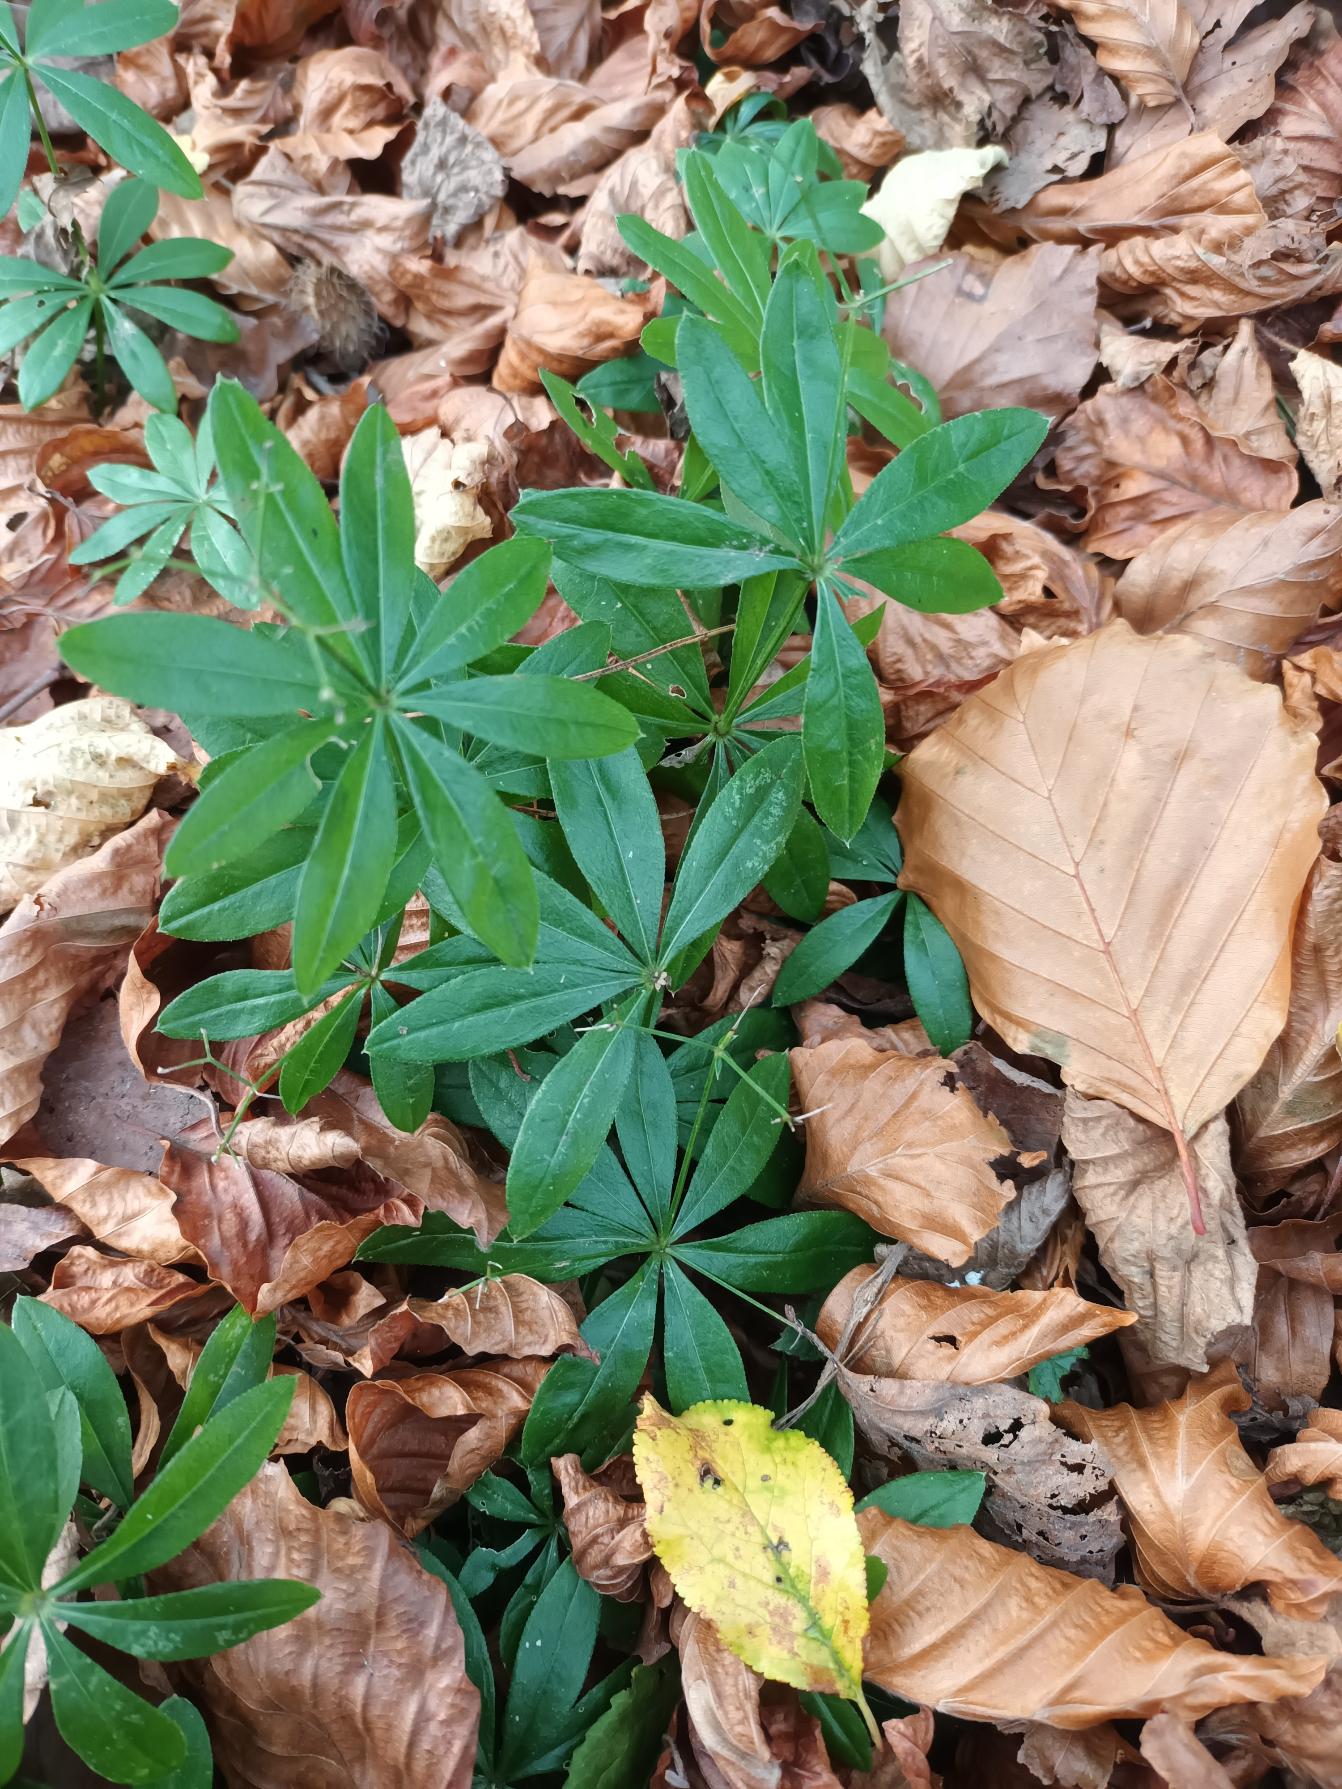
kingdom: Plantae
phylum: Tracheophyta
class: Magnoliopsida
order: Gentianales
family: Rubiaceae
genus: Galium
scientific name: Galium odoratum
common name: Skovmærke
